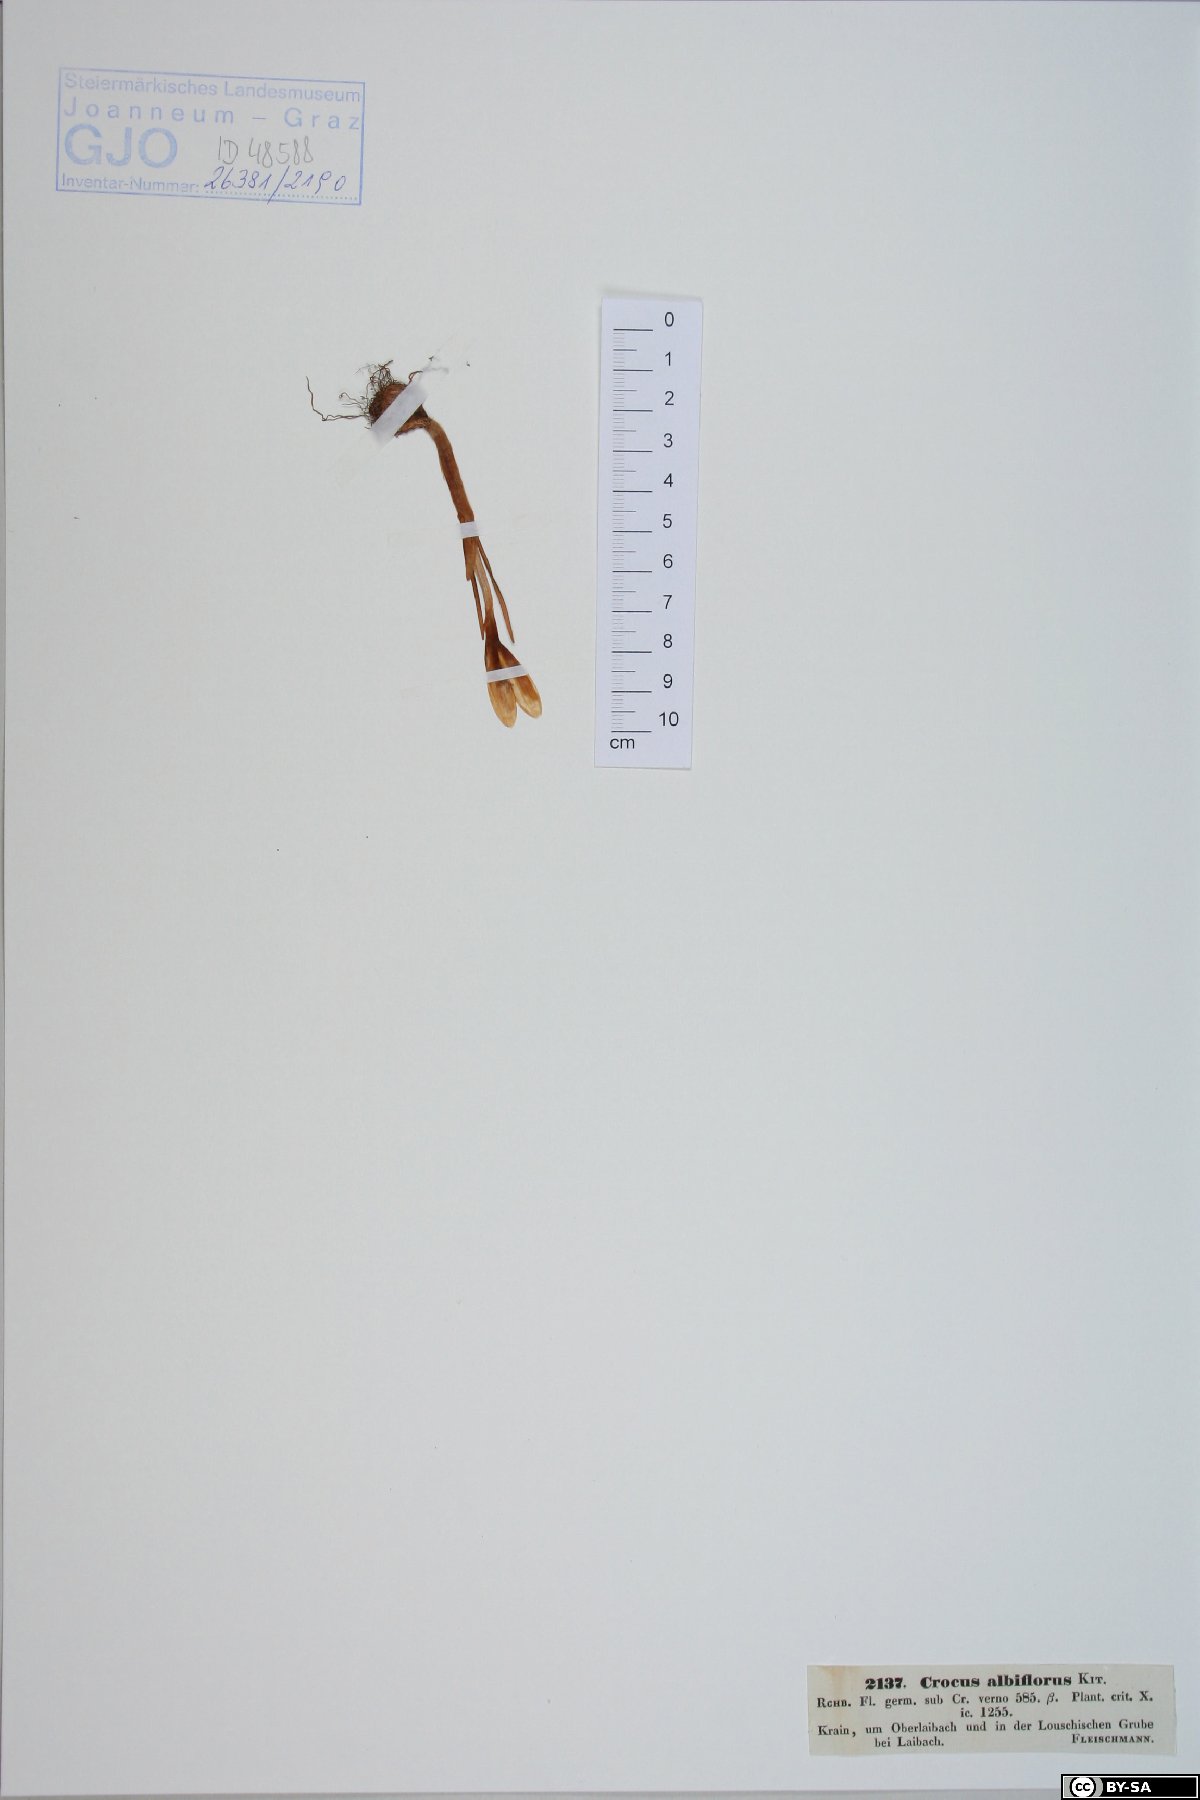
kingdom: Plantae
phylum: Tracheophyta
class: Liliopsida
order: Asparagales
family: Iridaceae
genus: Crocus
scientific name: Crocus vernus
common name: Spring crocus
